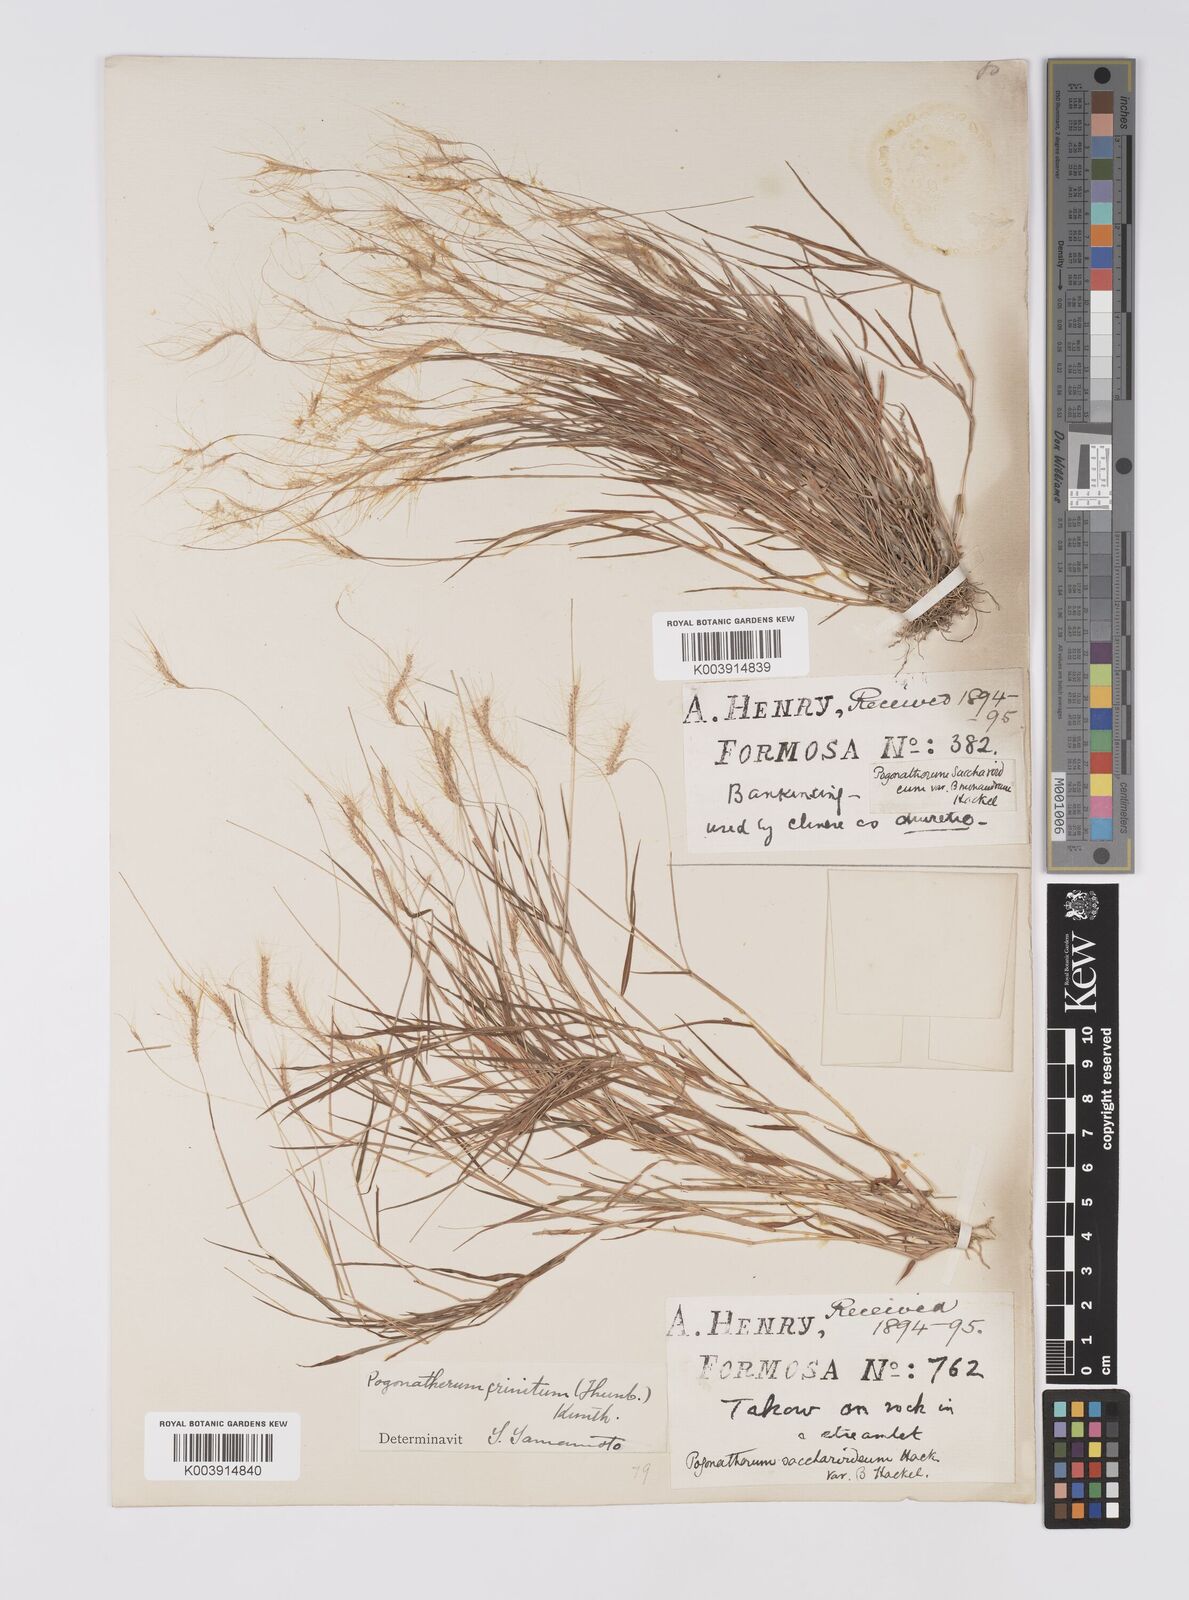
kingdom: Plantae
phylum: Tracheophyta
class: Liliopsida
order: Poales
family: Poaceae
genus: Pogonatherum
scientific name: Pogonatherum crinitum
